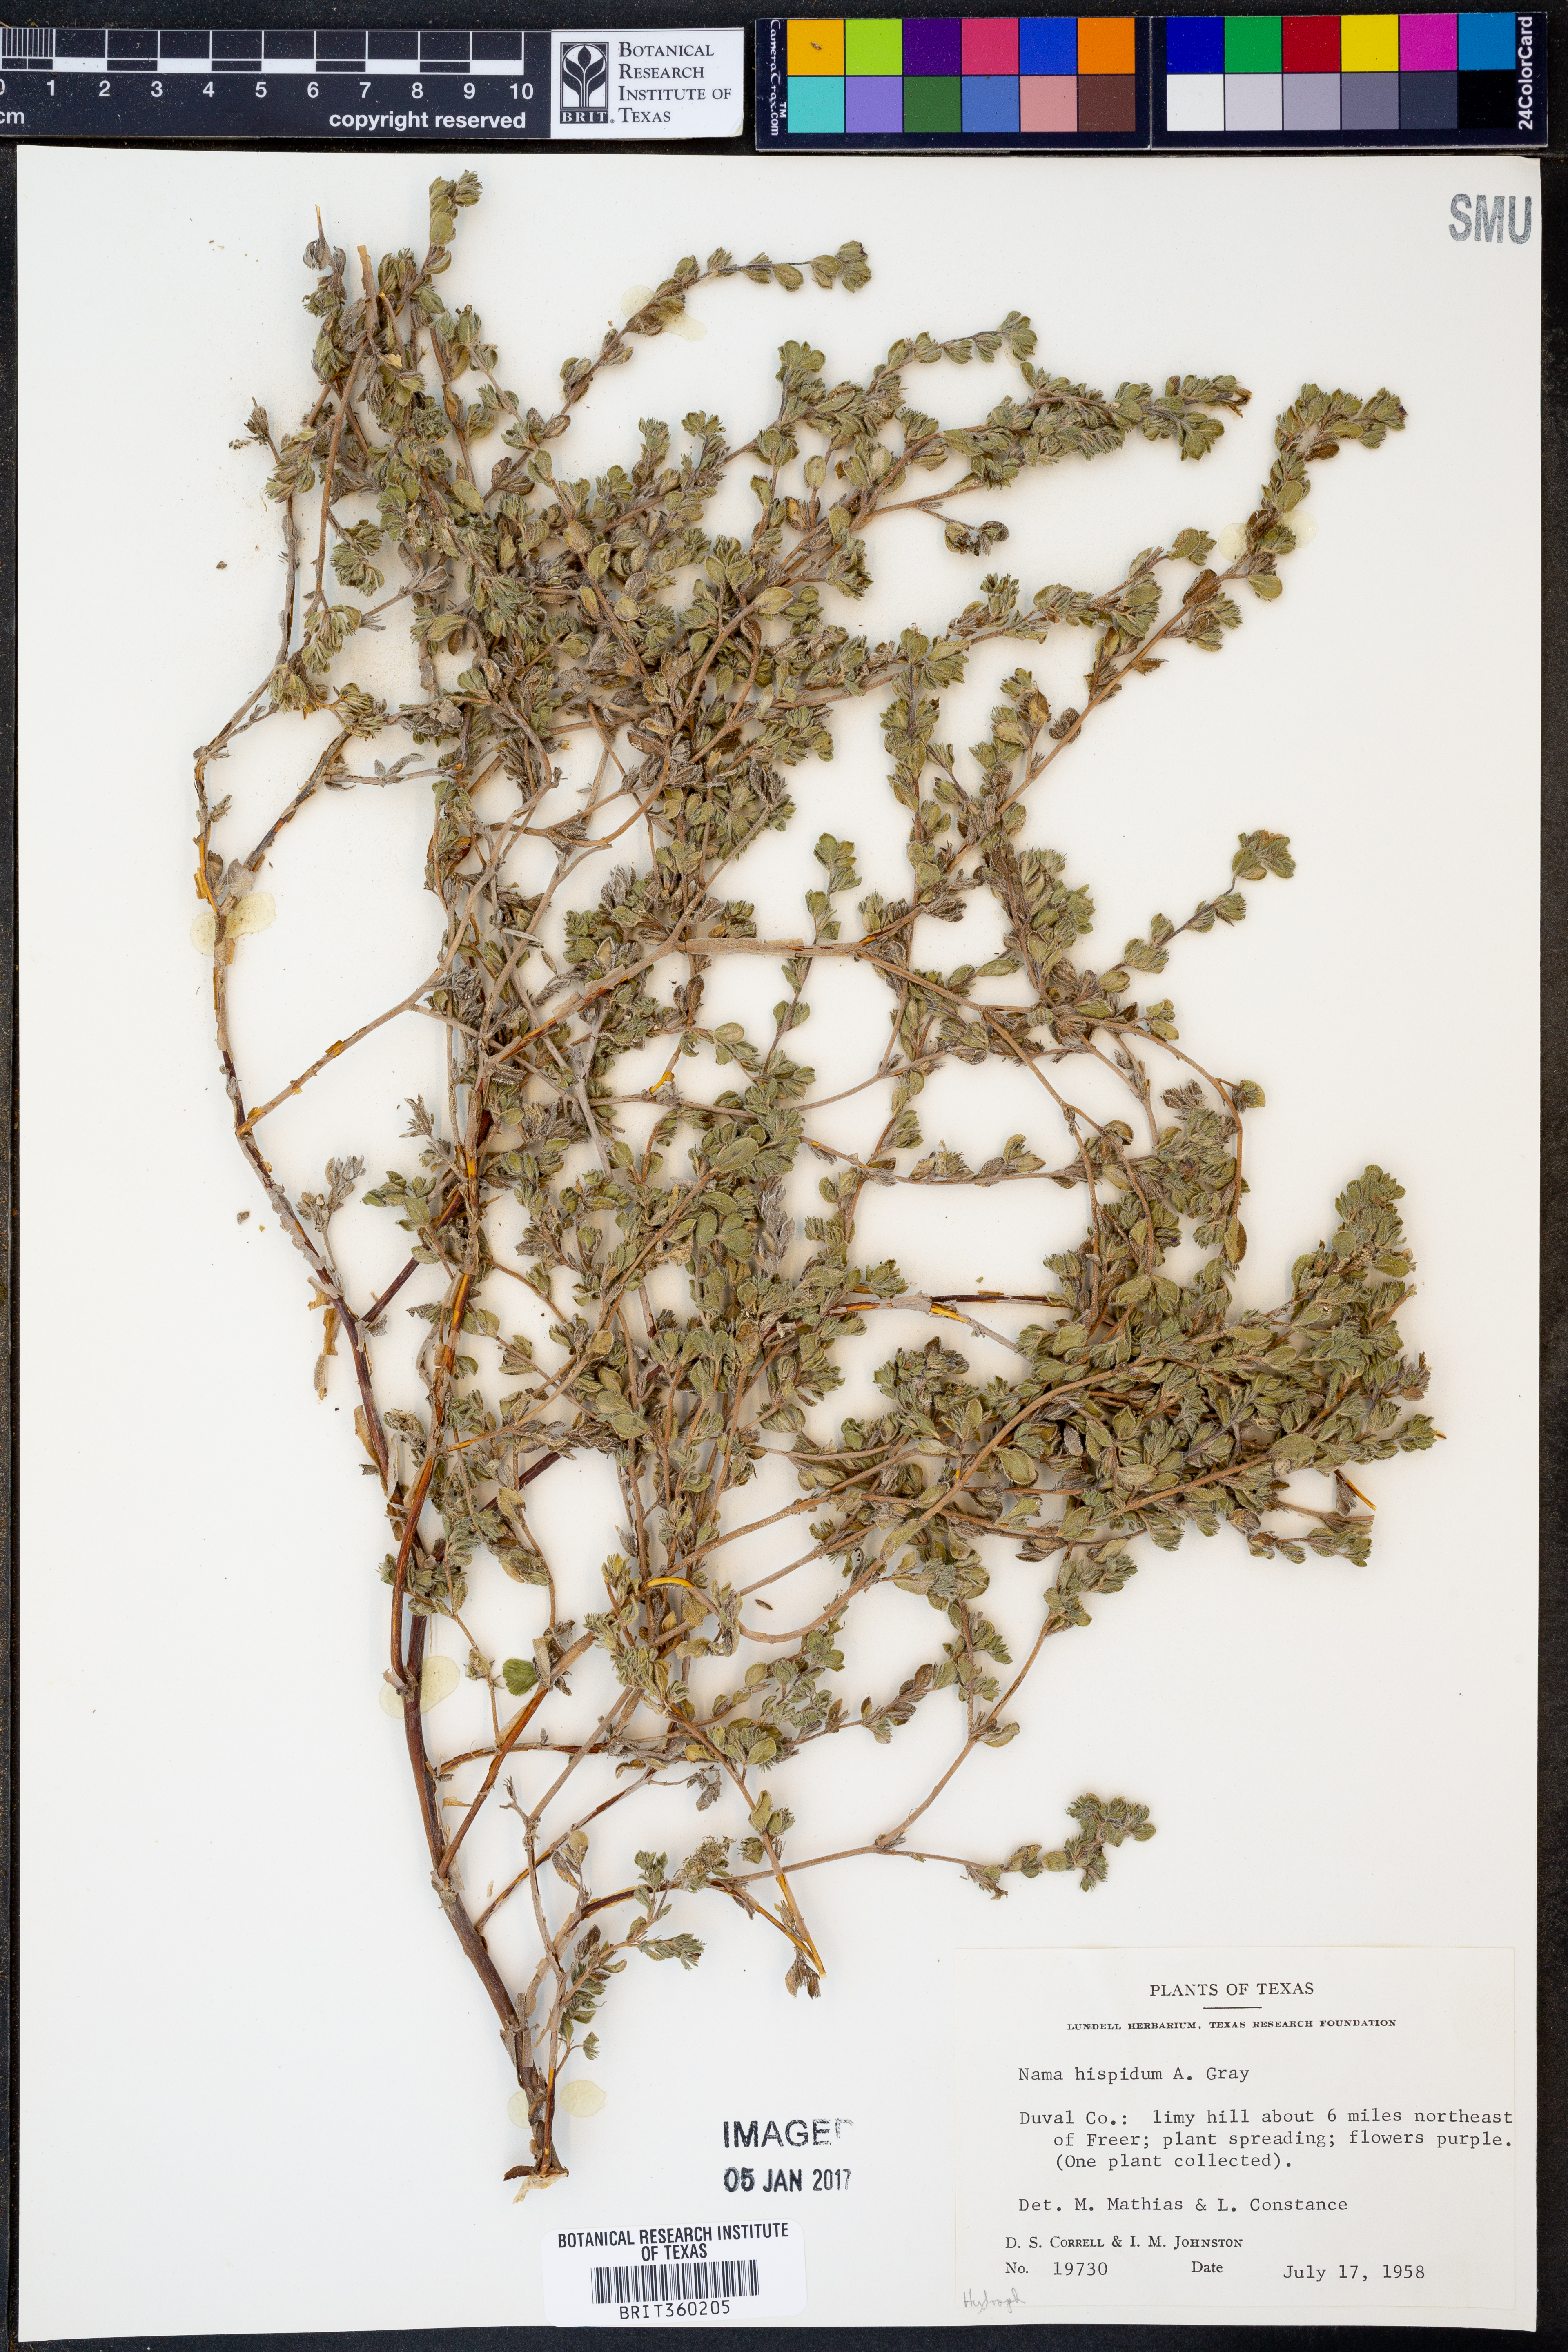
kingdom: Plantae
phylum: Tracheophyta
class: Magnoliopsida
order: Boraginales
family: Namaceae
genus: Nama
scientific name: Nama hispida
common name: Bristly nama
